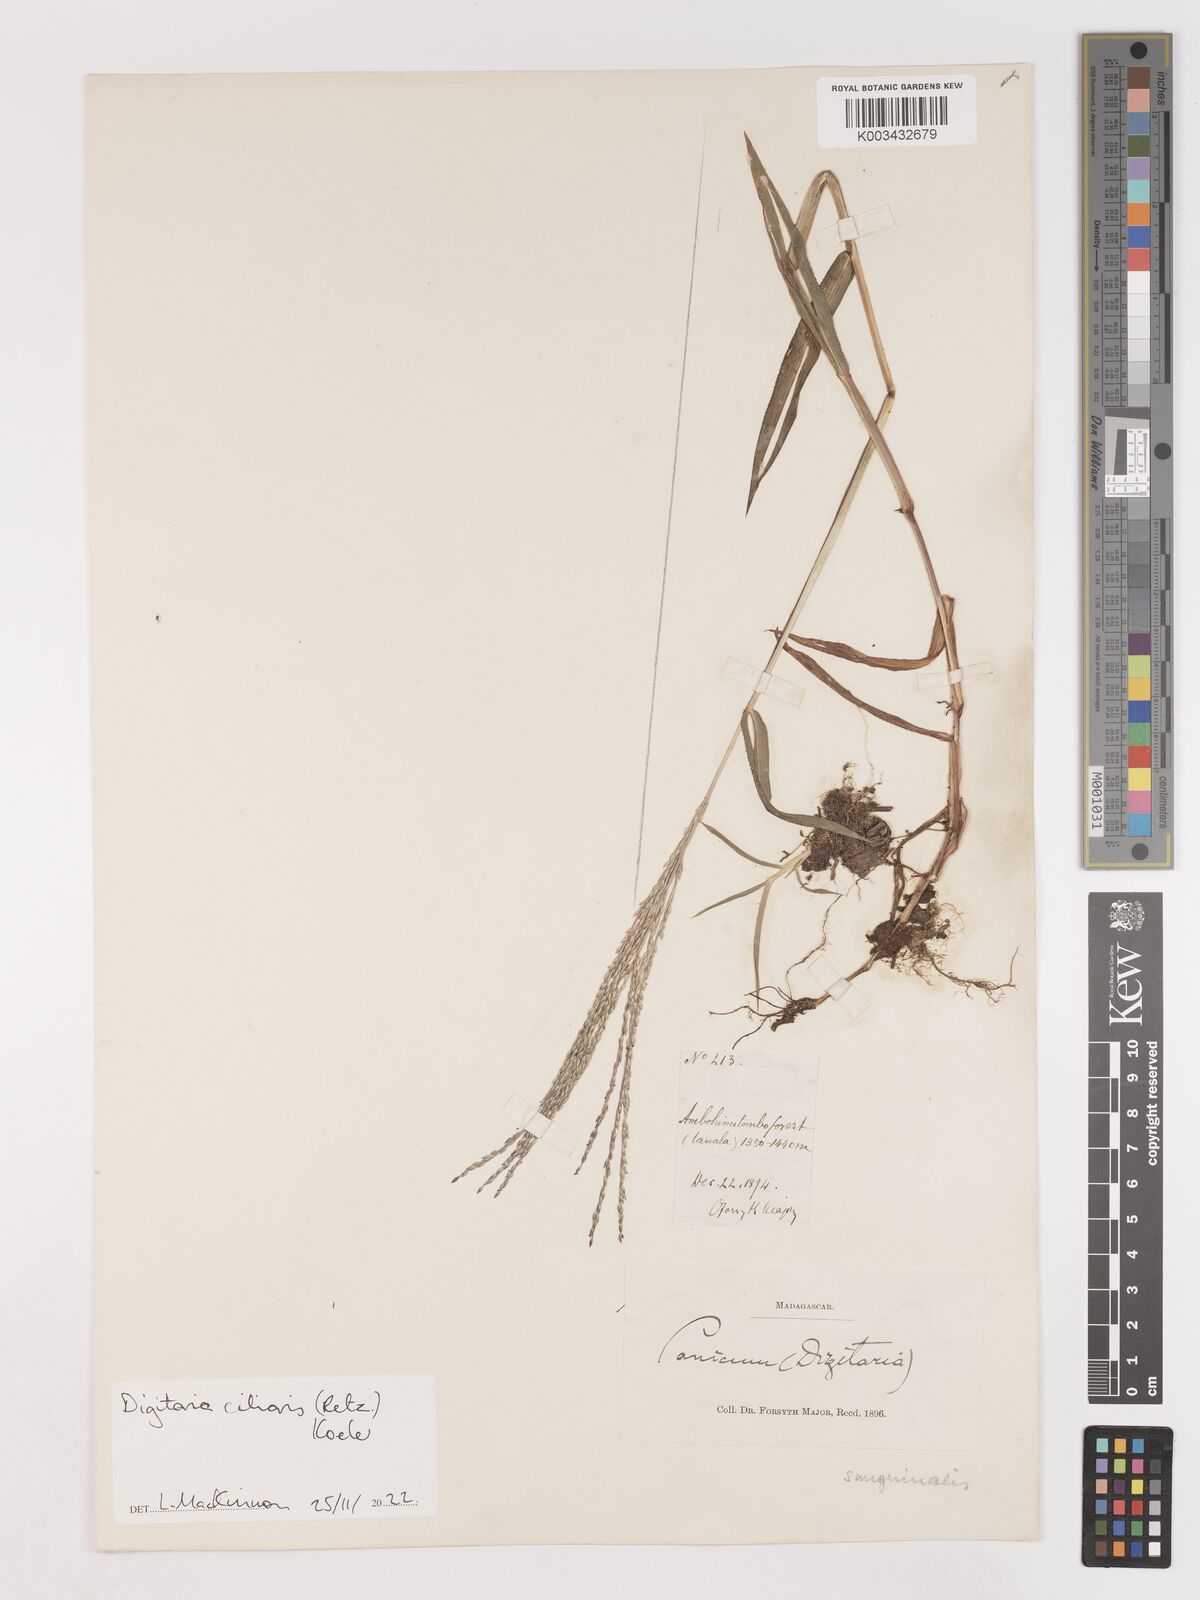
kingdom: Plantae
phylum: Tracheophyta
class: Liliopsida
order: Poales
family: Poaceae
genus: Digitaria
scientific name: Digitaria ciliaris
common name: Tropical finger-grass
